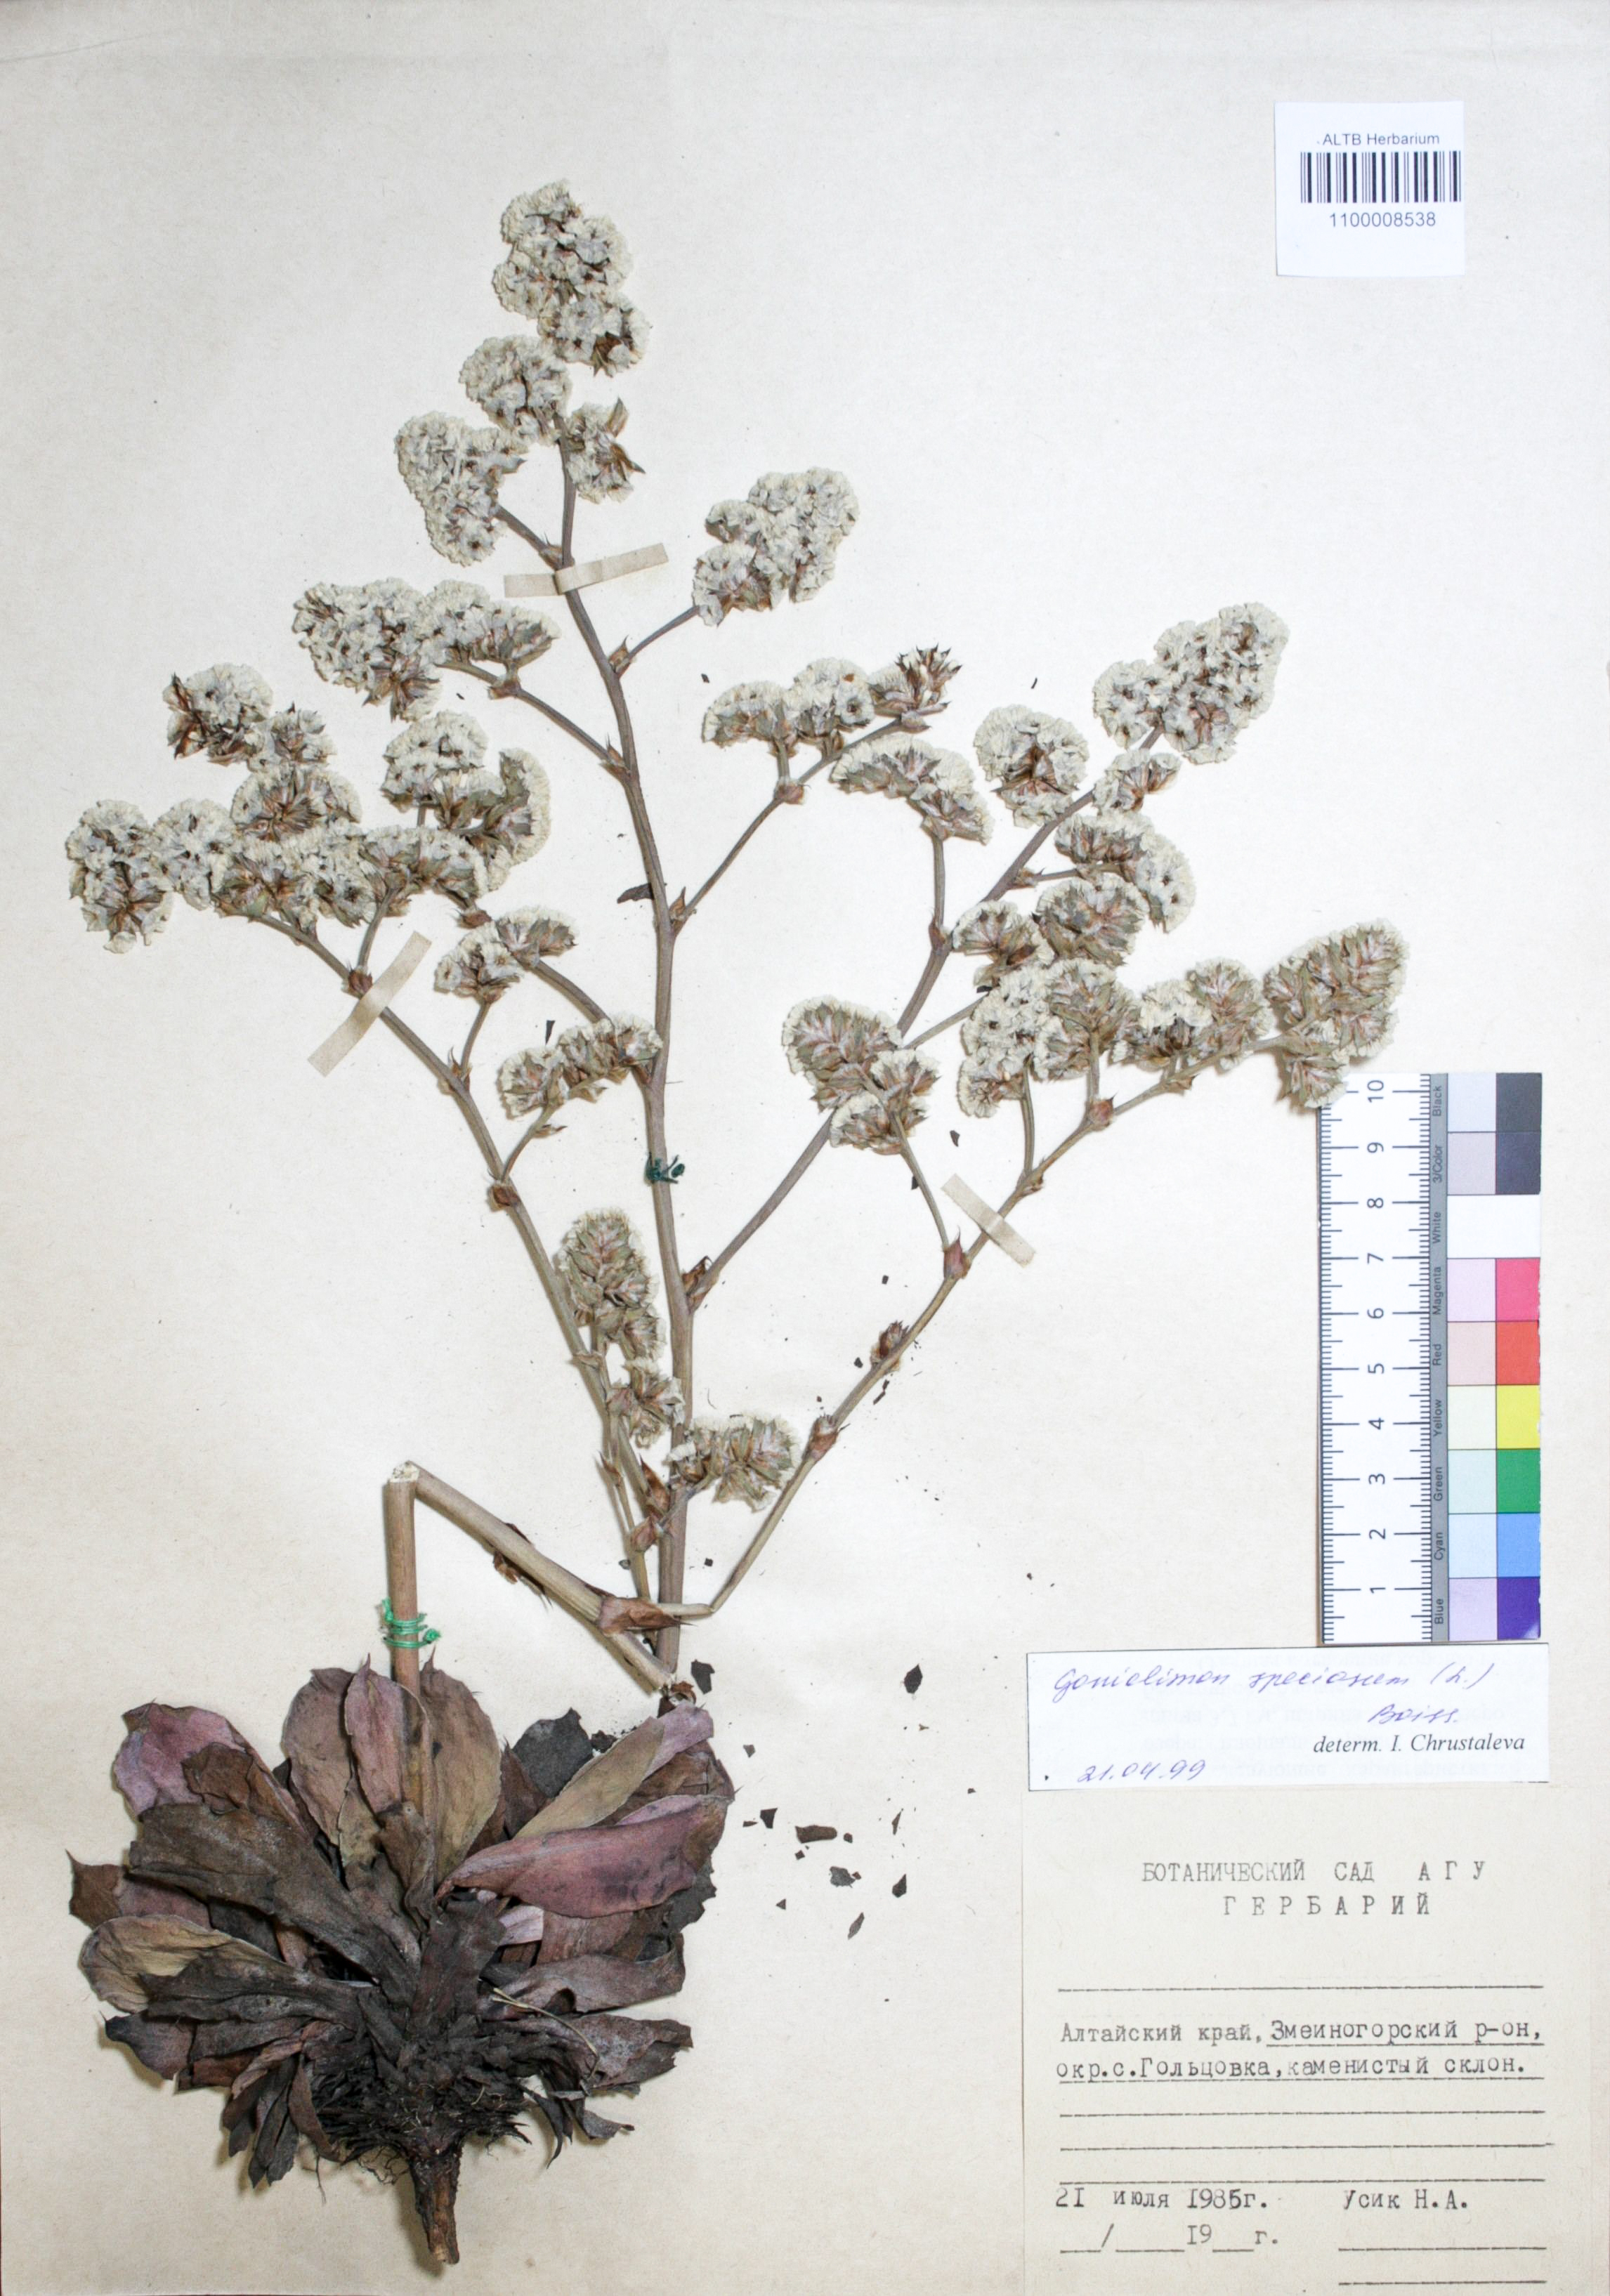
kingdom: Plantae
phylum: Tracheophyta
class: Magnoliopsida
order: Caryophyllales
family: Plumbaginaceae
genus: Goniolimon
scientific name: Goniolimon speciosum
